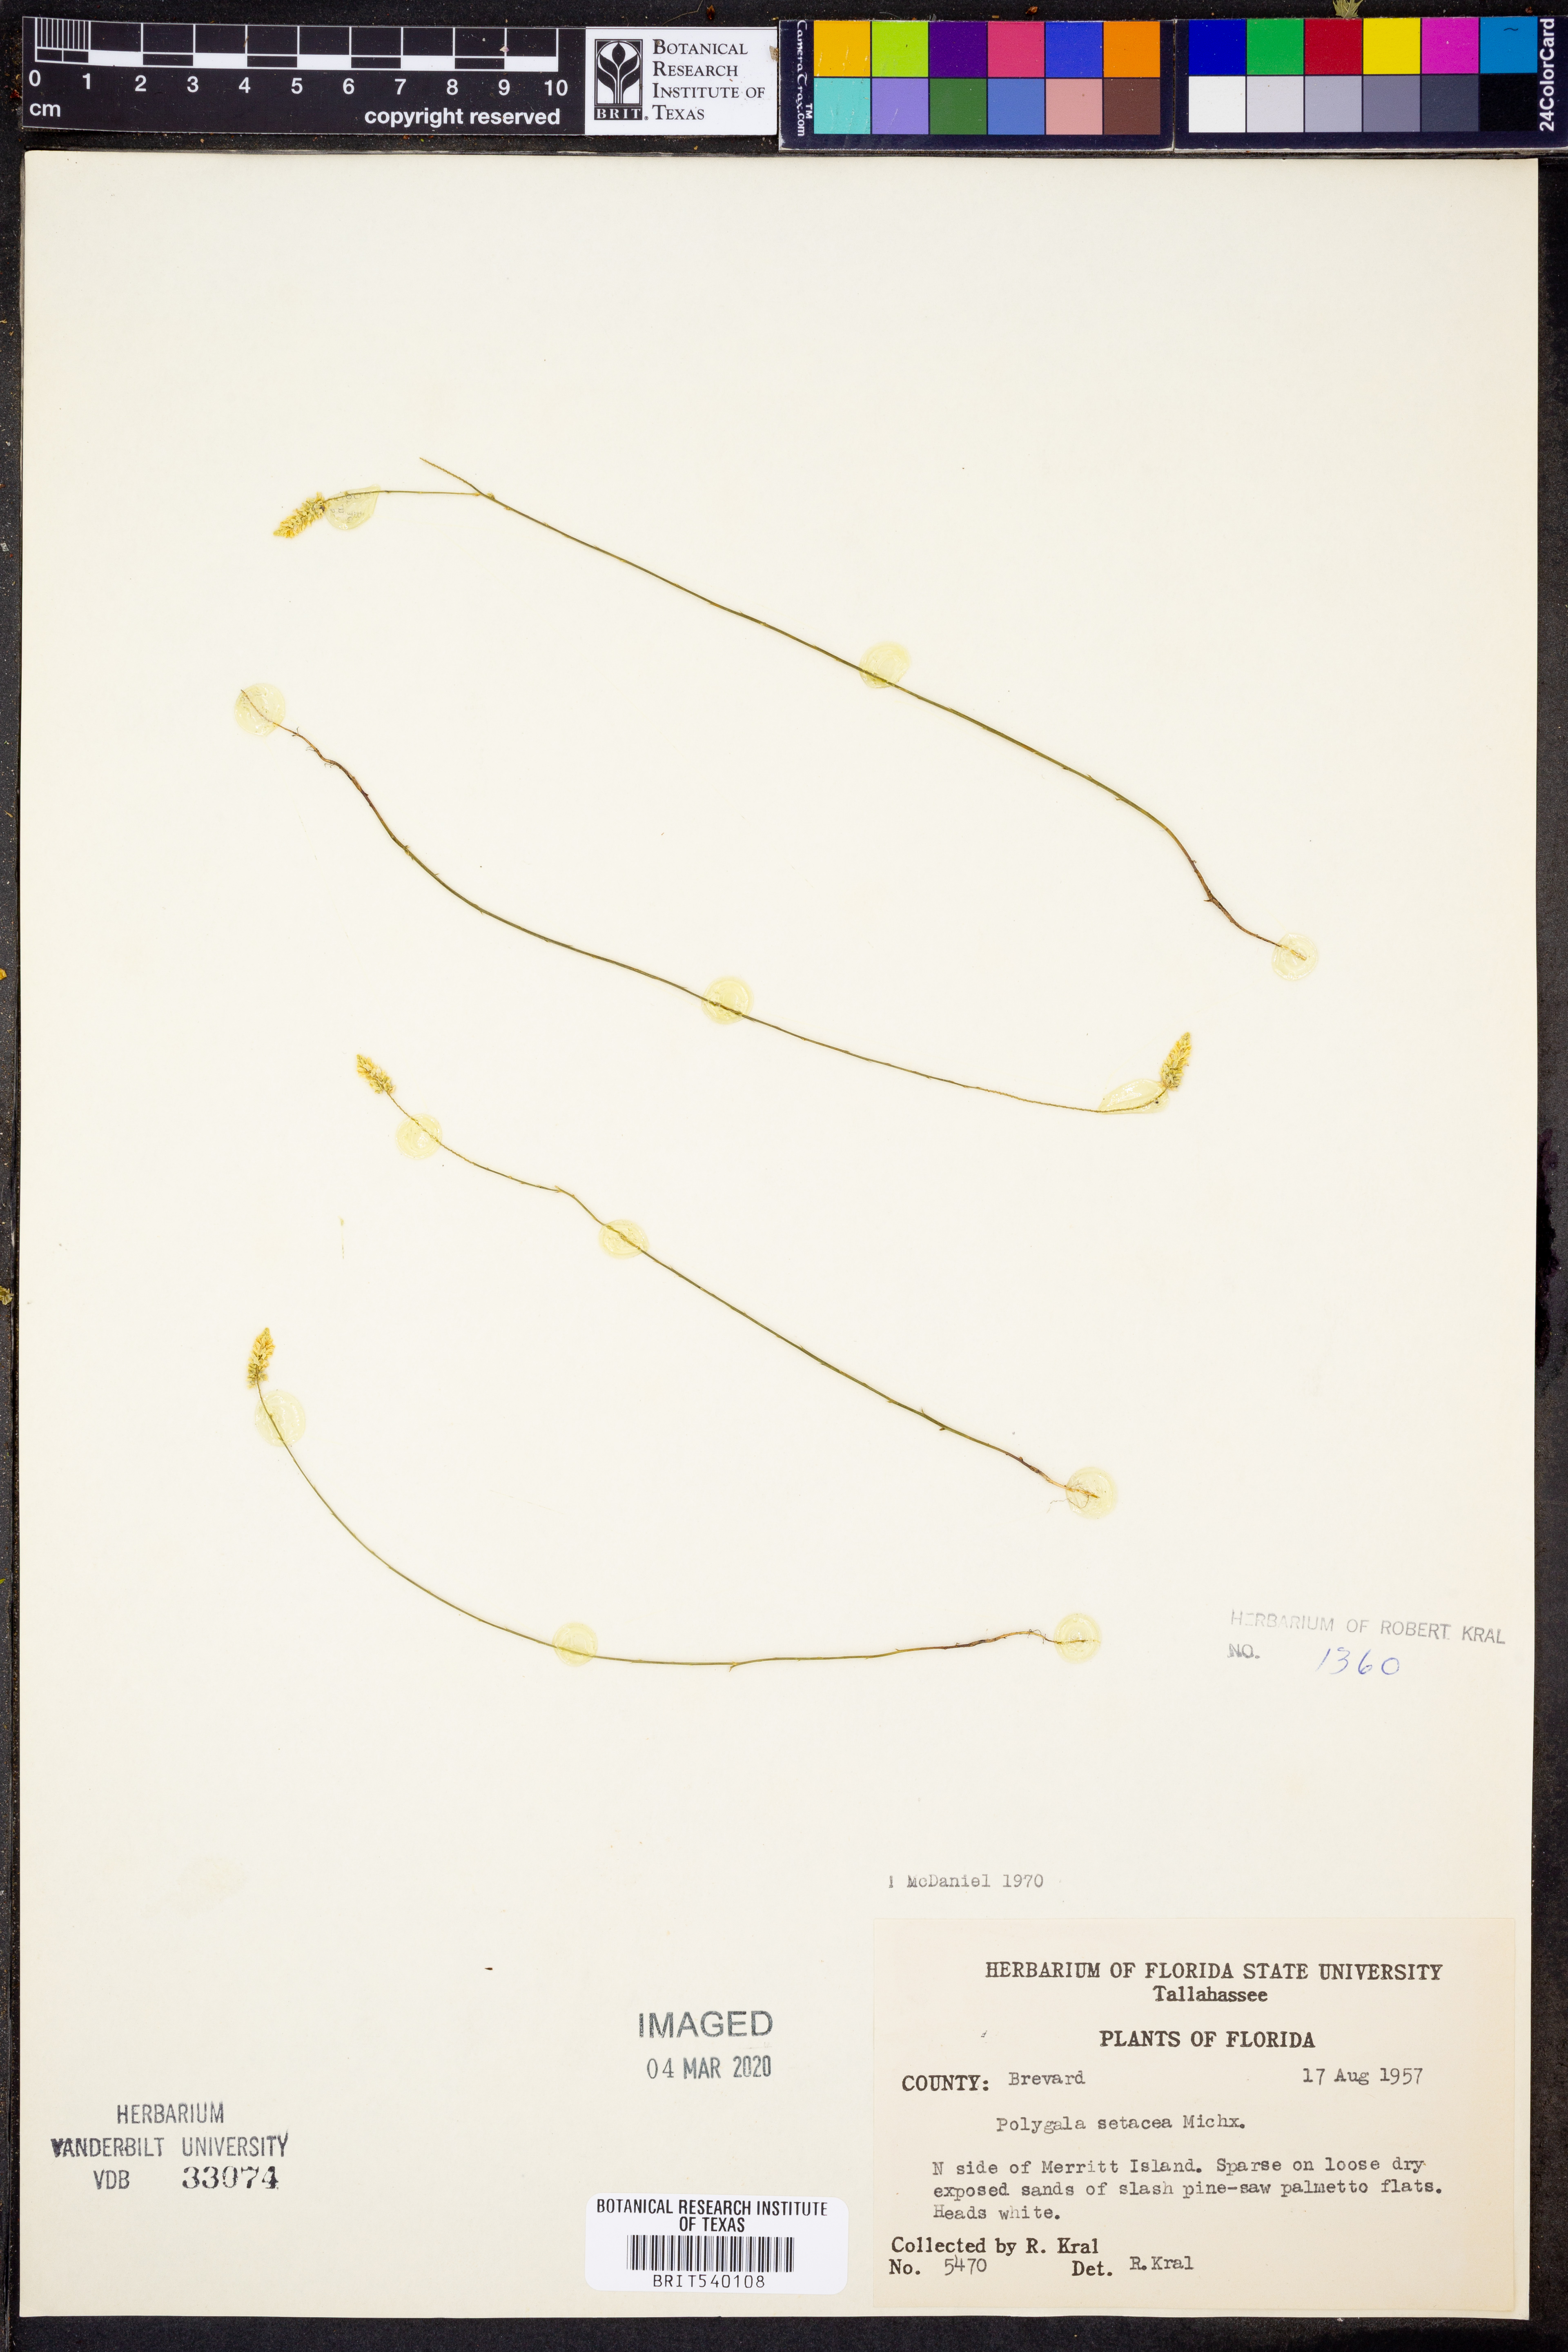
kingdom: Plantae
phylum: Tracheophyta
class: Magnoliopsida
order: Fabales
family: Polygalaceae
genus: Polygala
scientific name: Polygala setacea
